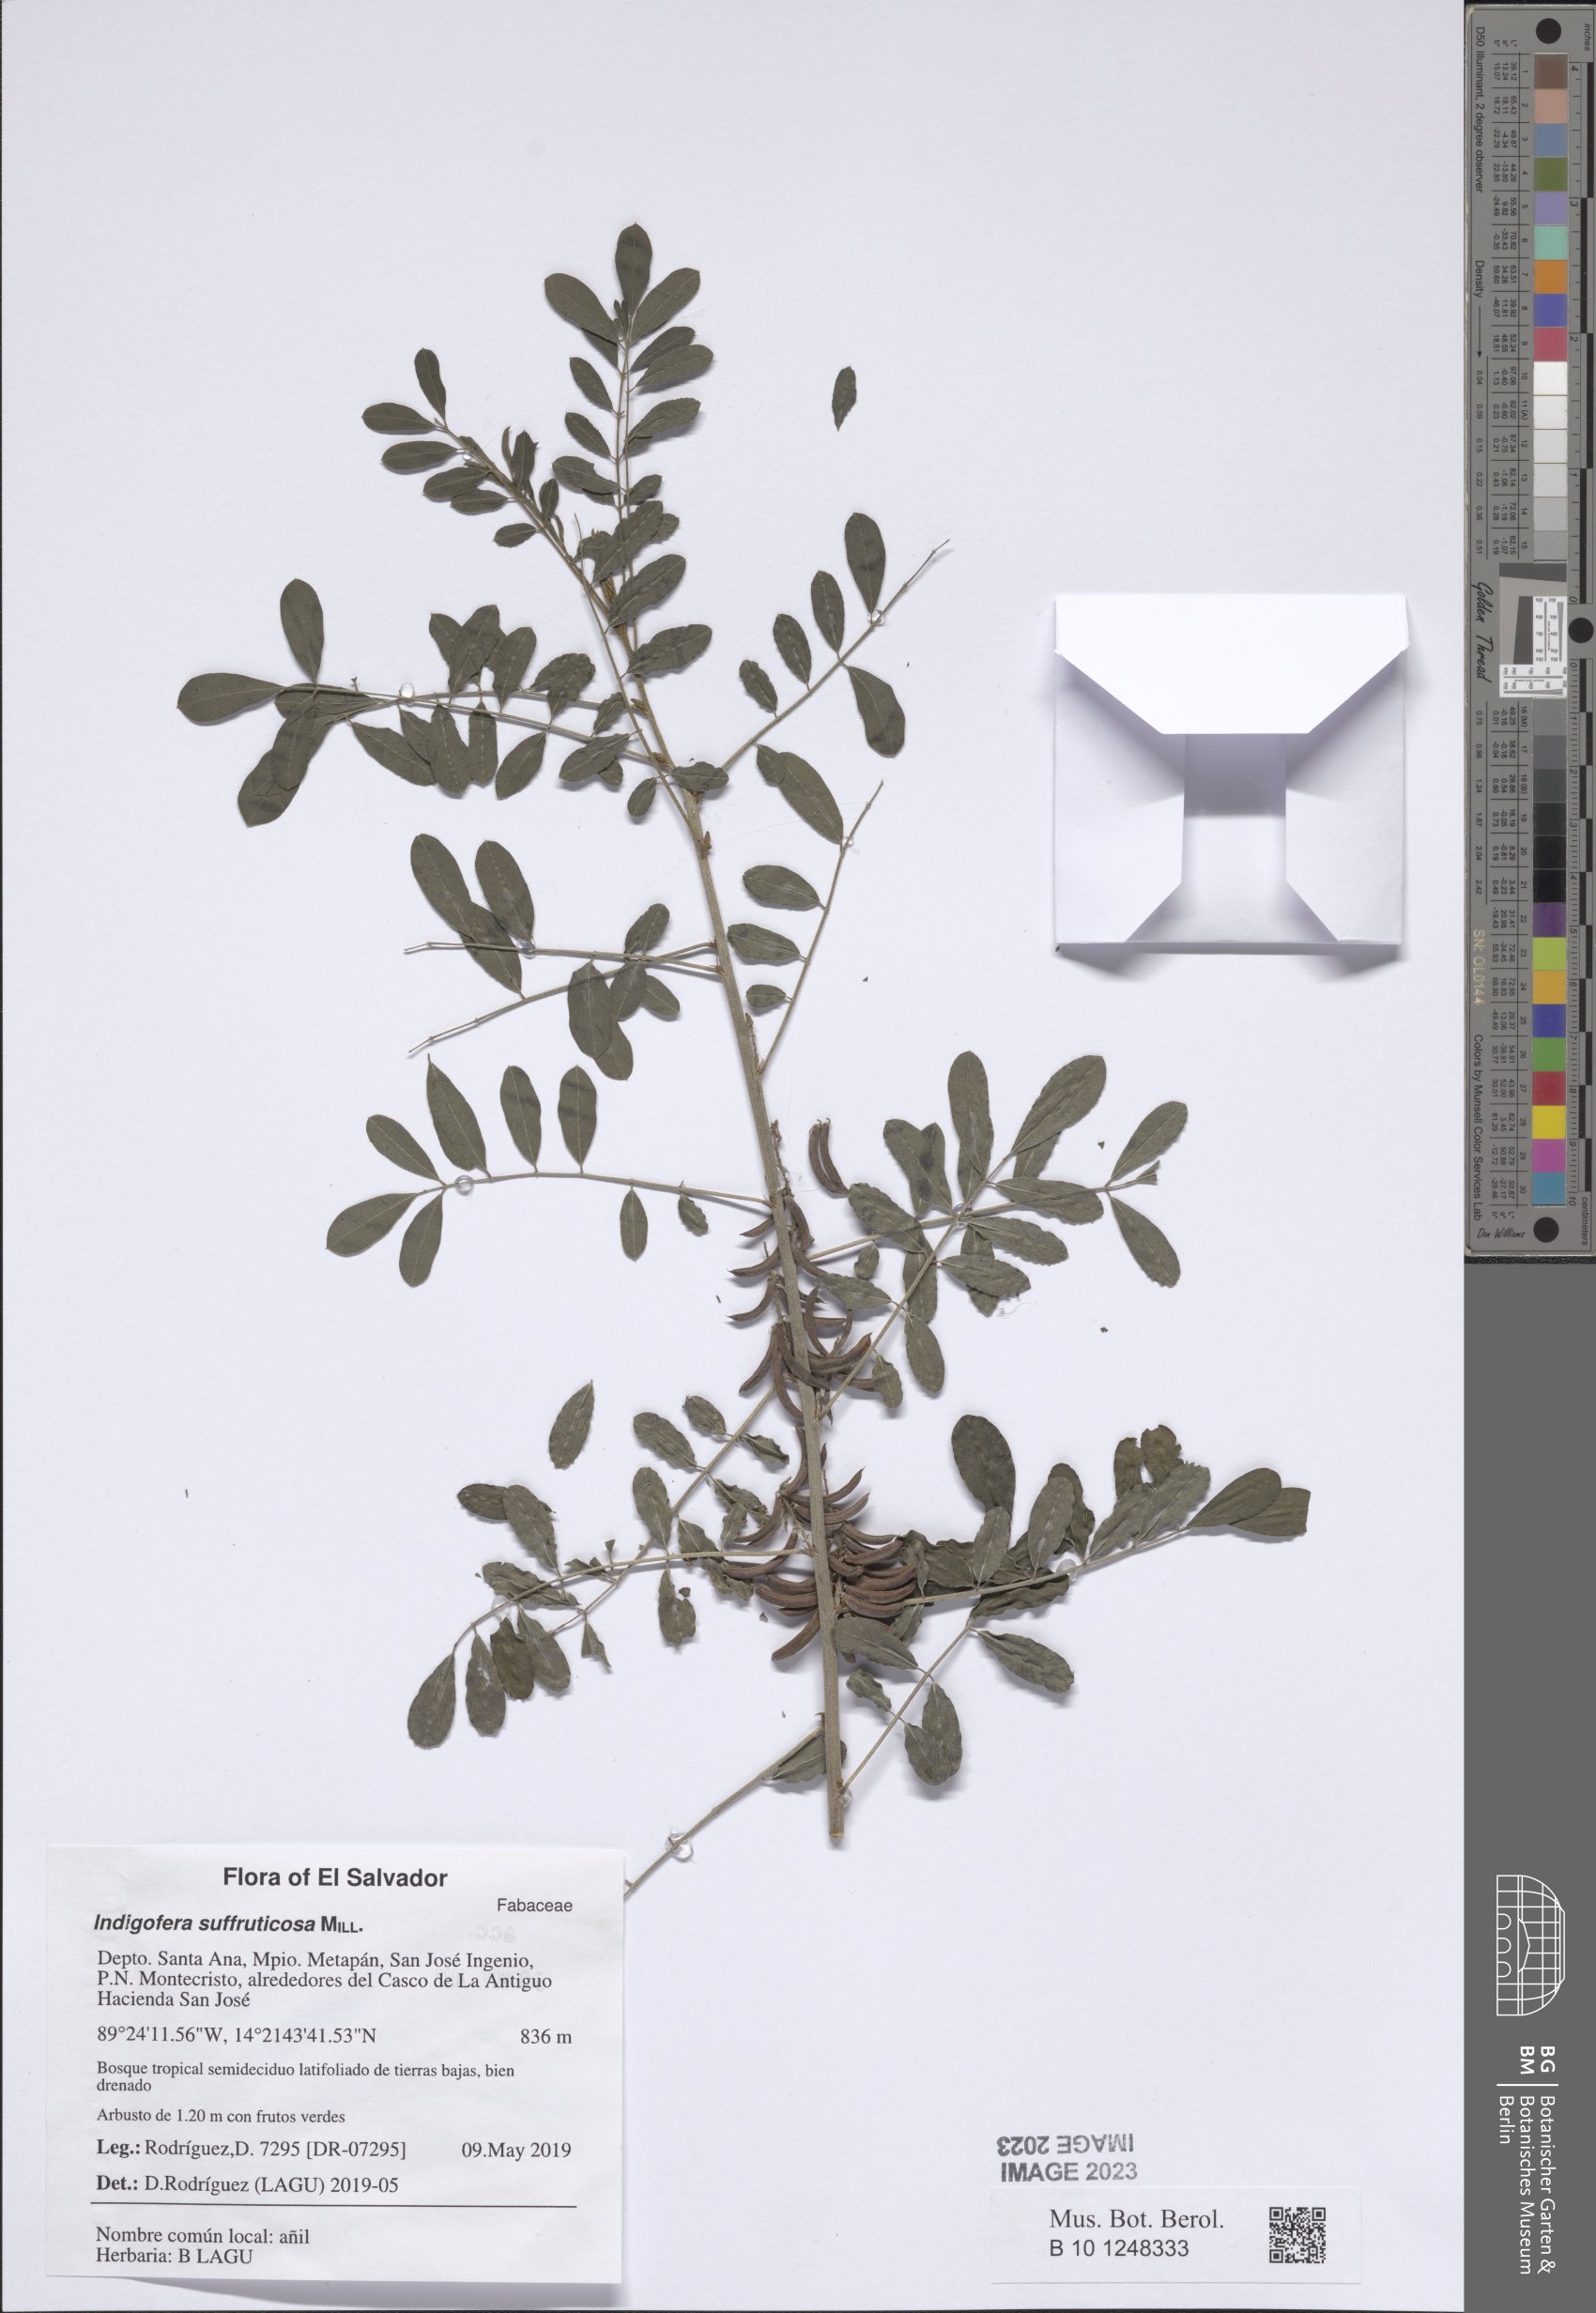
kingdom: Plantae
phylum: Tracheophyta
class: Magnoliopsida
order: Fabales
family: Fabaceae
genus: Indigofera
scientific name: Indigofera suffruticosa
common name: Anil de pasto
